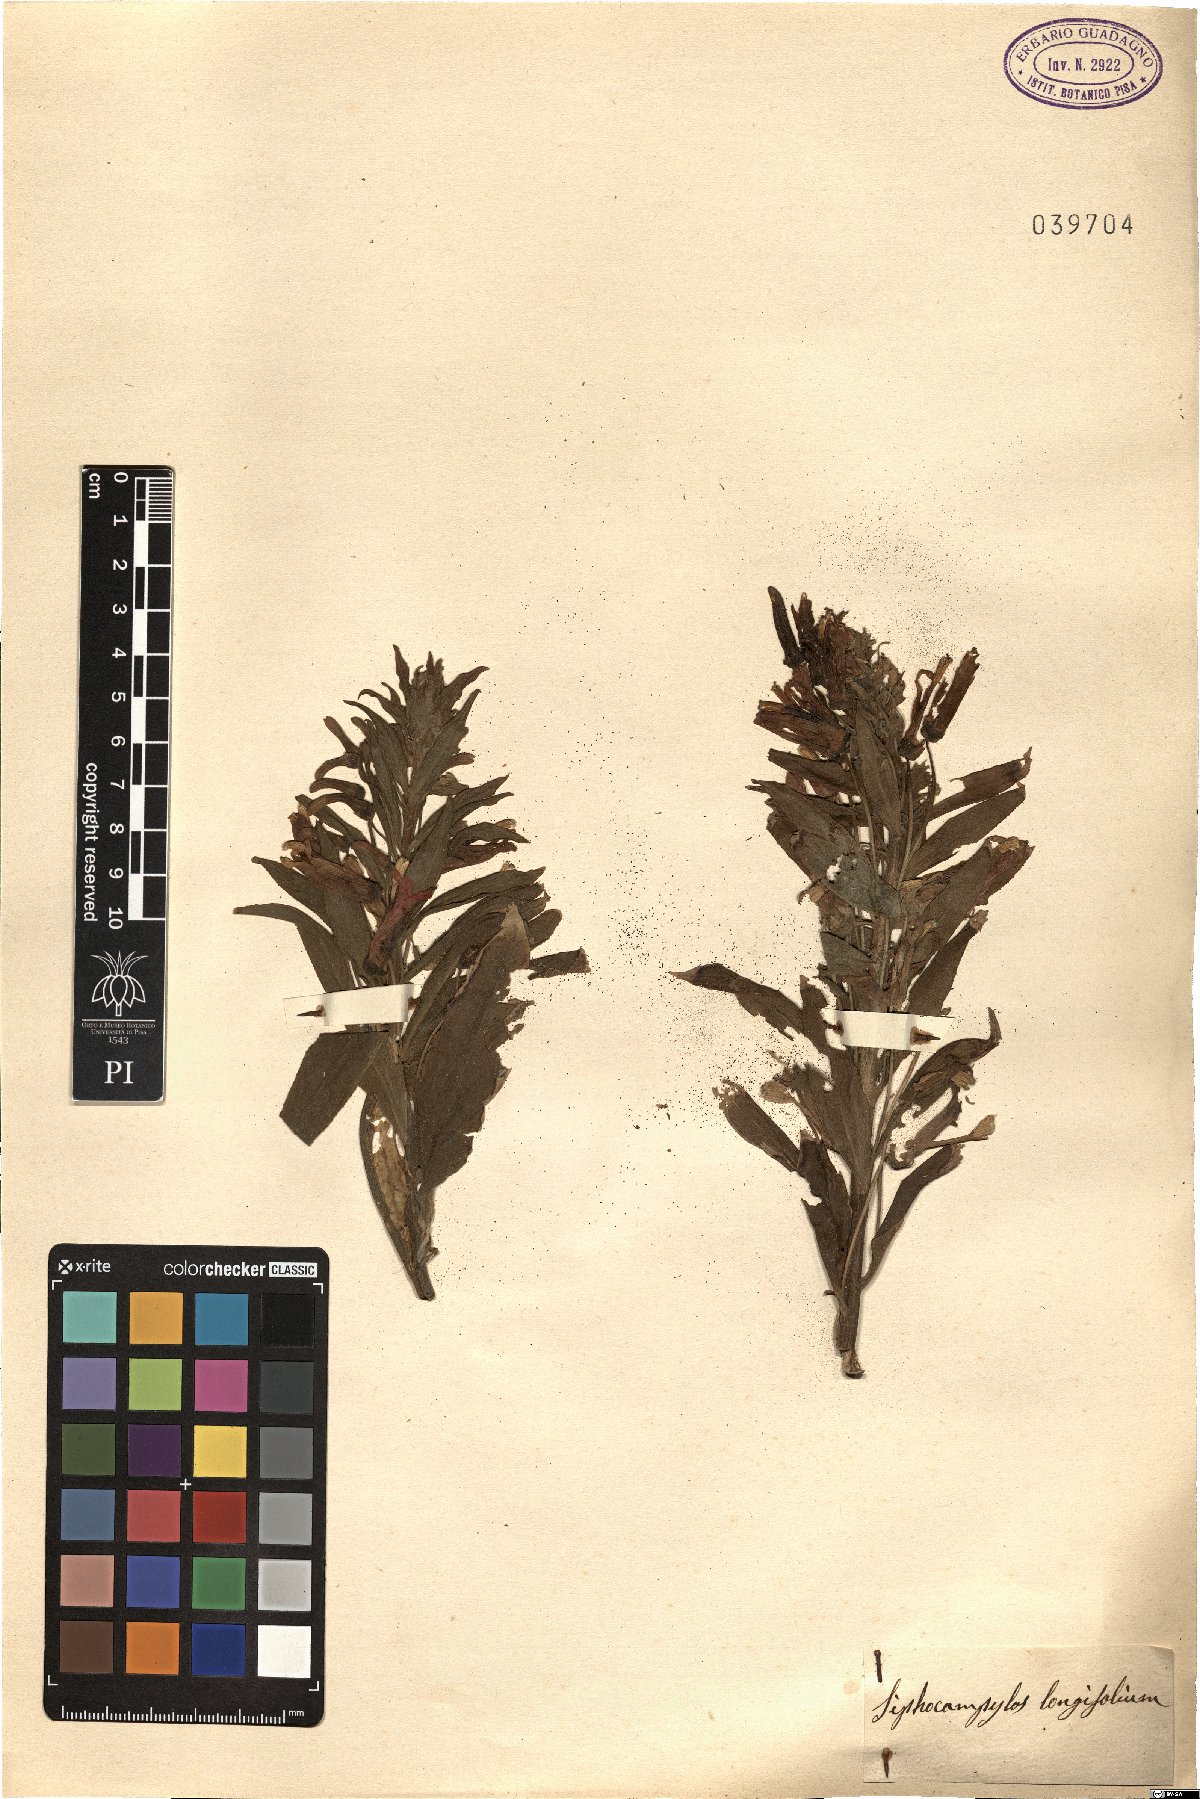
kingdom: Plantae
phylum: Tracheophyta
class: Magnoliopsida
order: Asterales
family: Campanulaceae
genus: Siphocampylus
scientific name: Siphocampylus
